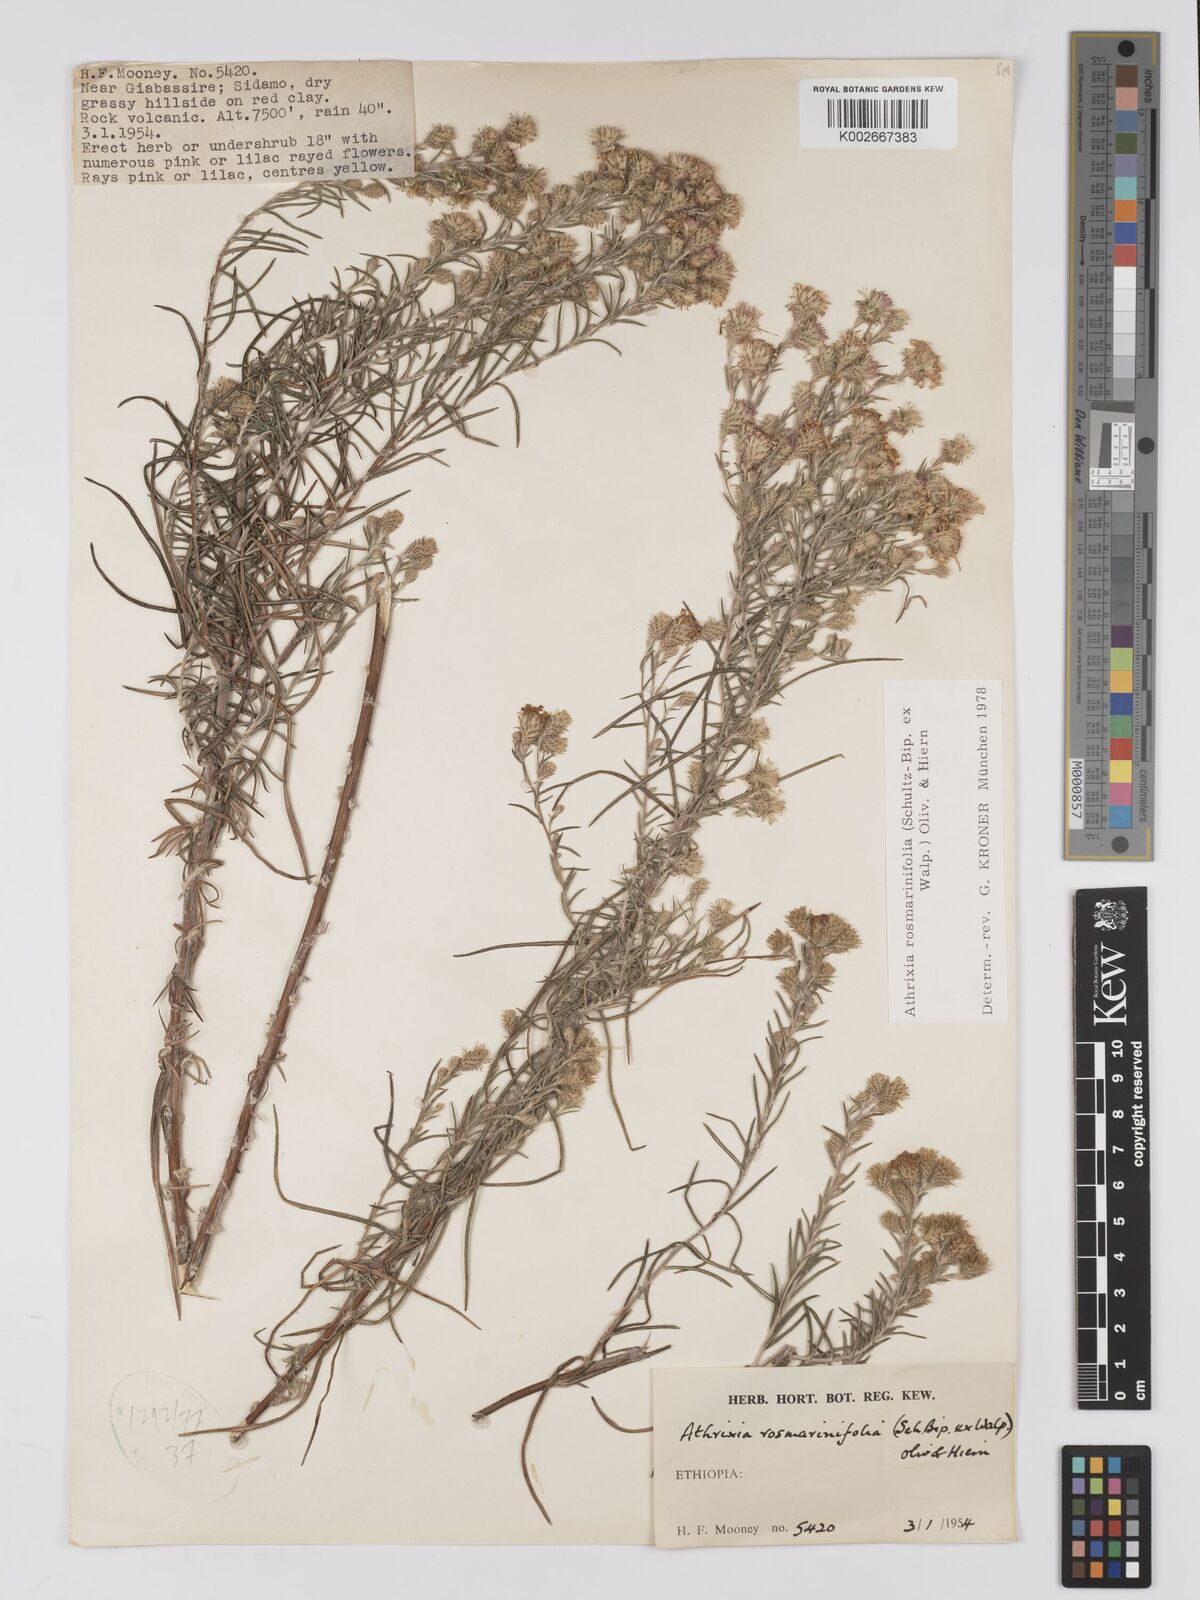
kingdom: Plantae
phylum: Tracheophyta
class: Magnoliopsida
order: Asterales
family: Asteraceae
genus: Athrixia
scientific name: Athrixia rosmarinifolia
